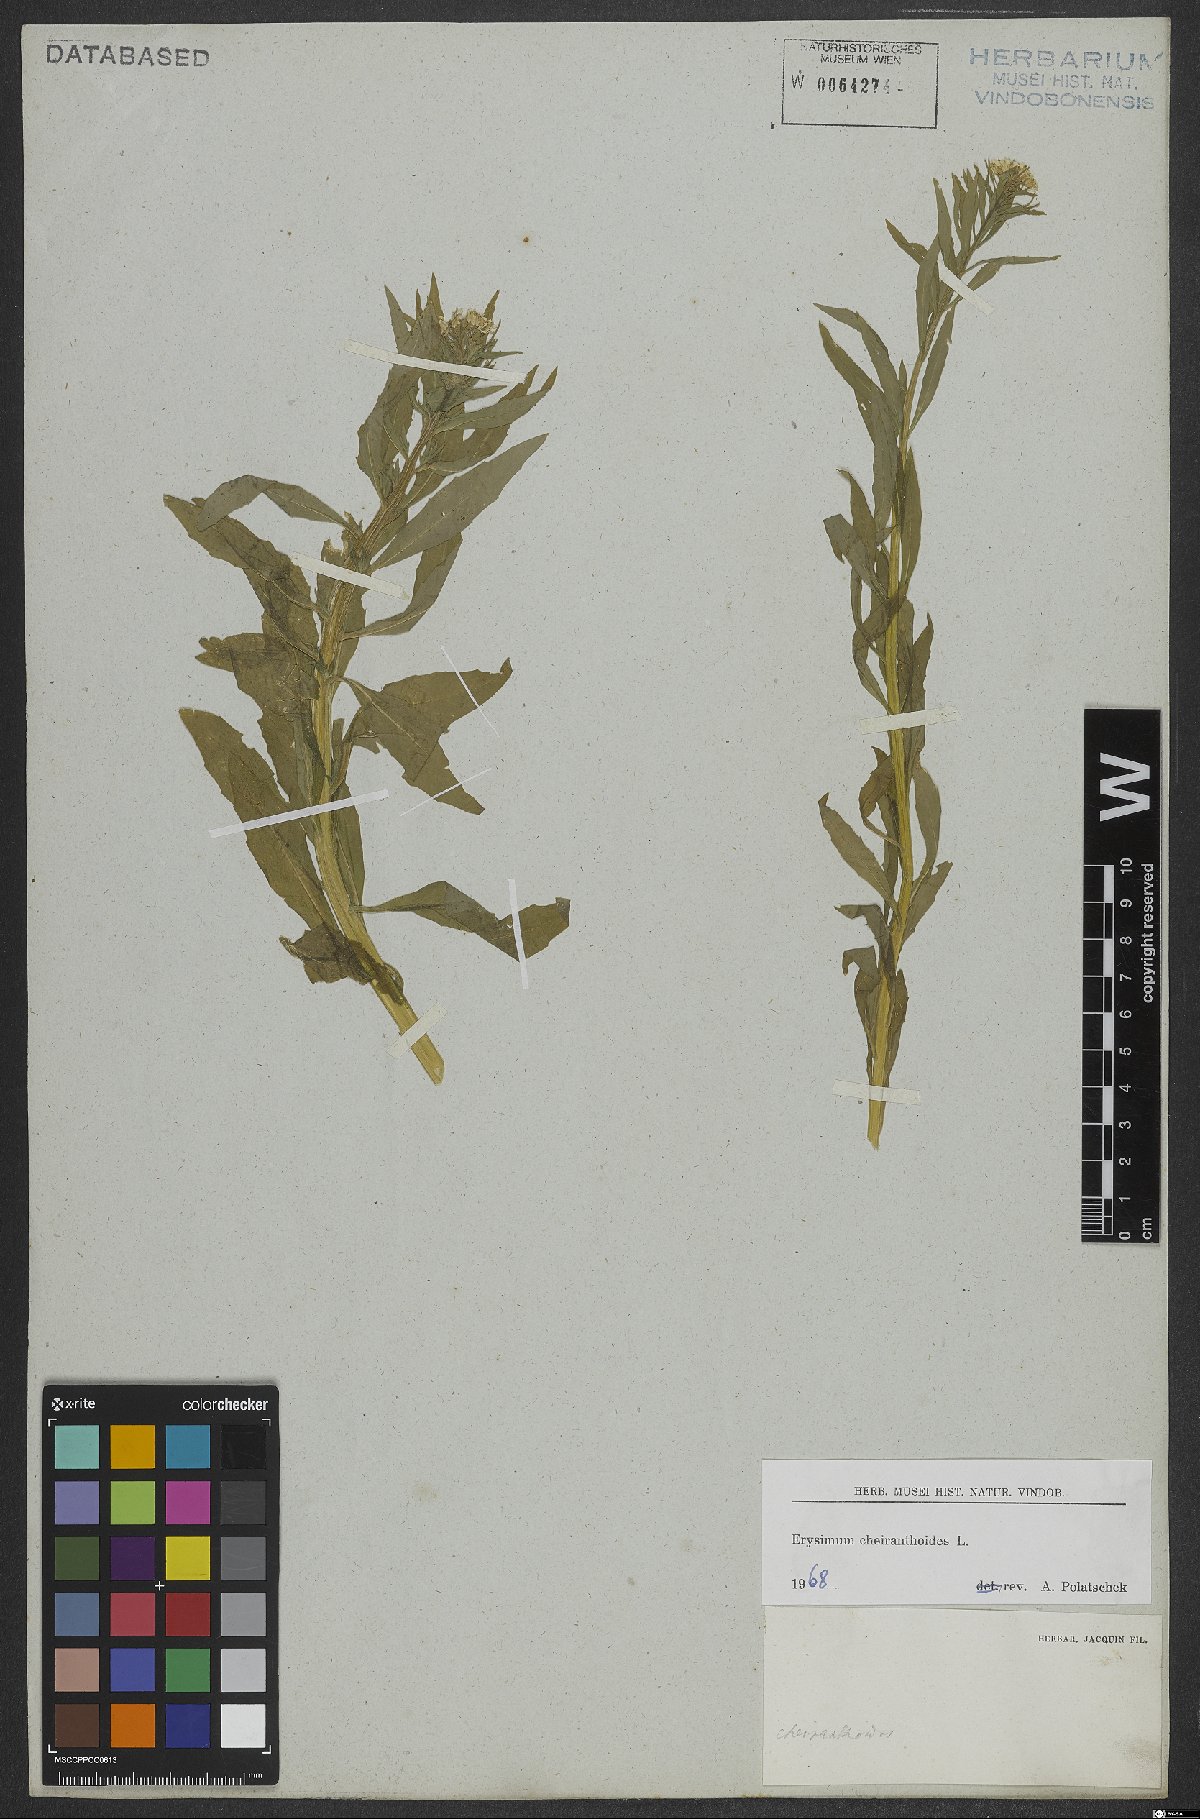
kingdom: Plantae
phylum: Tracheophyta
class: Magnoliopsida
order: Brassicales
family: Brassicaceae
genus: Erysimum
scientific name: Erysimum cheiranthoides
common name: Treacle mustard
